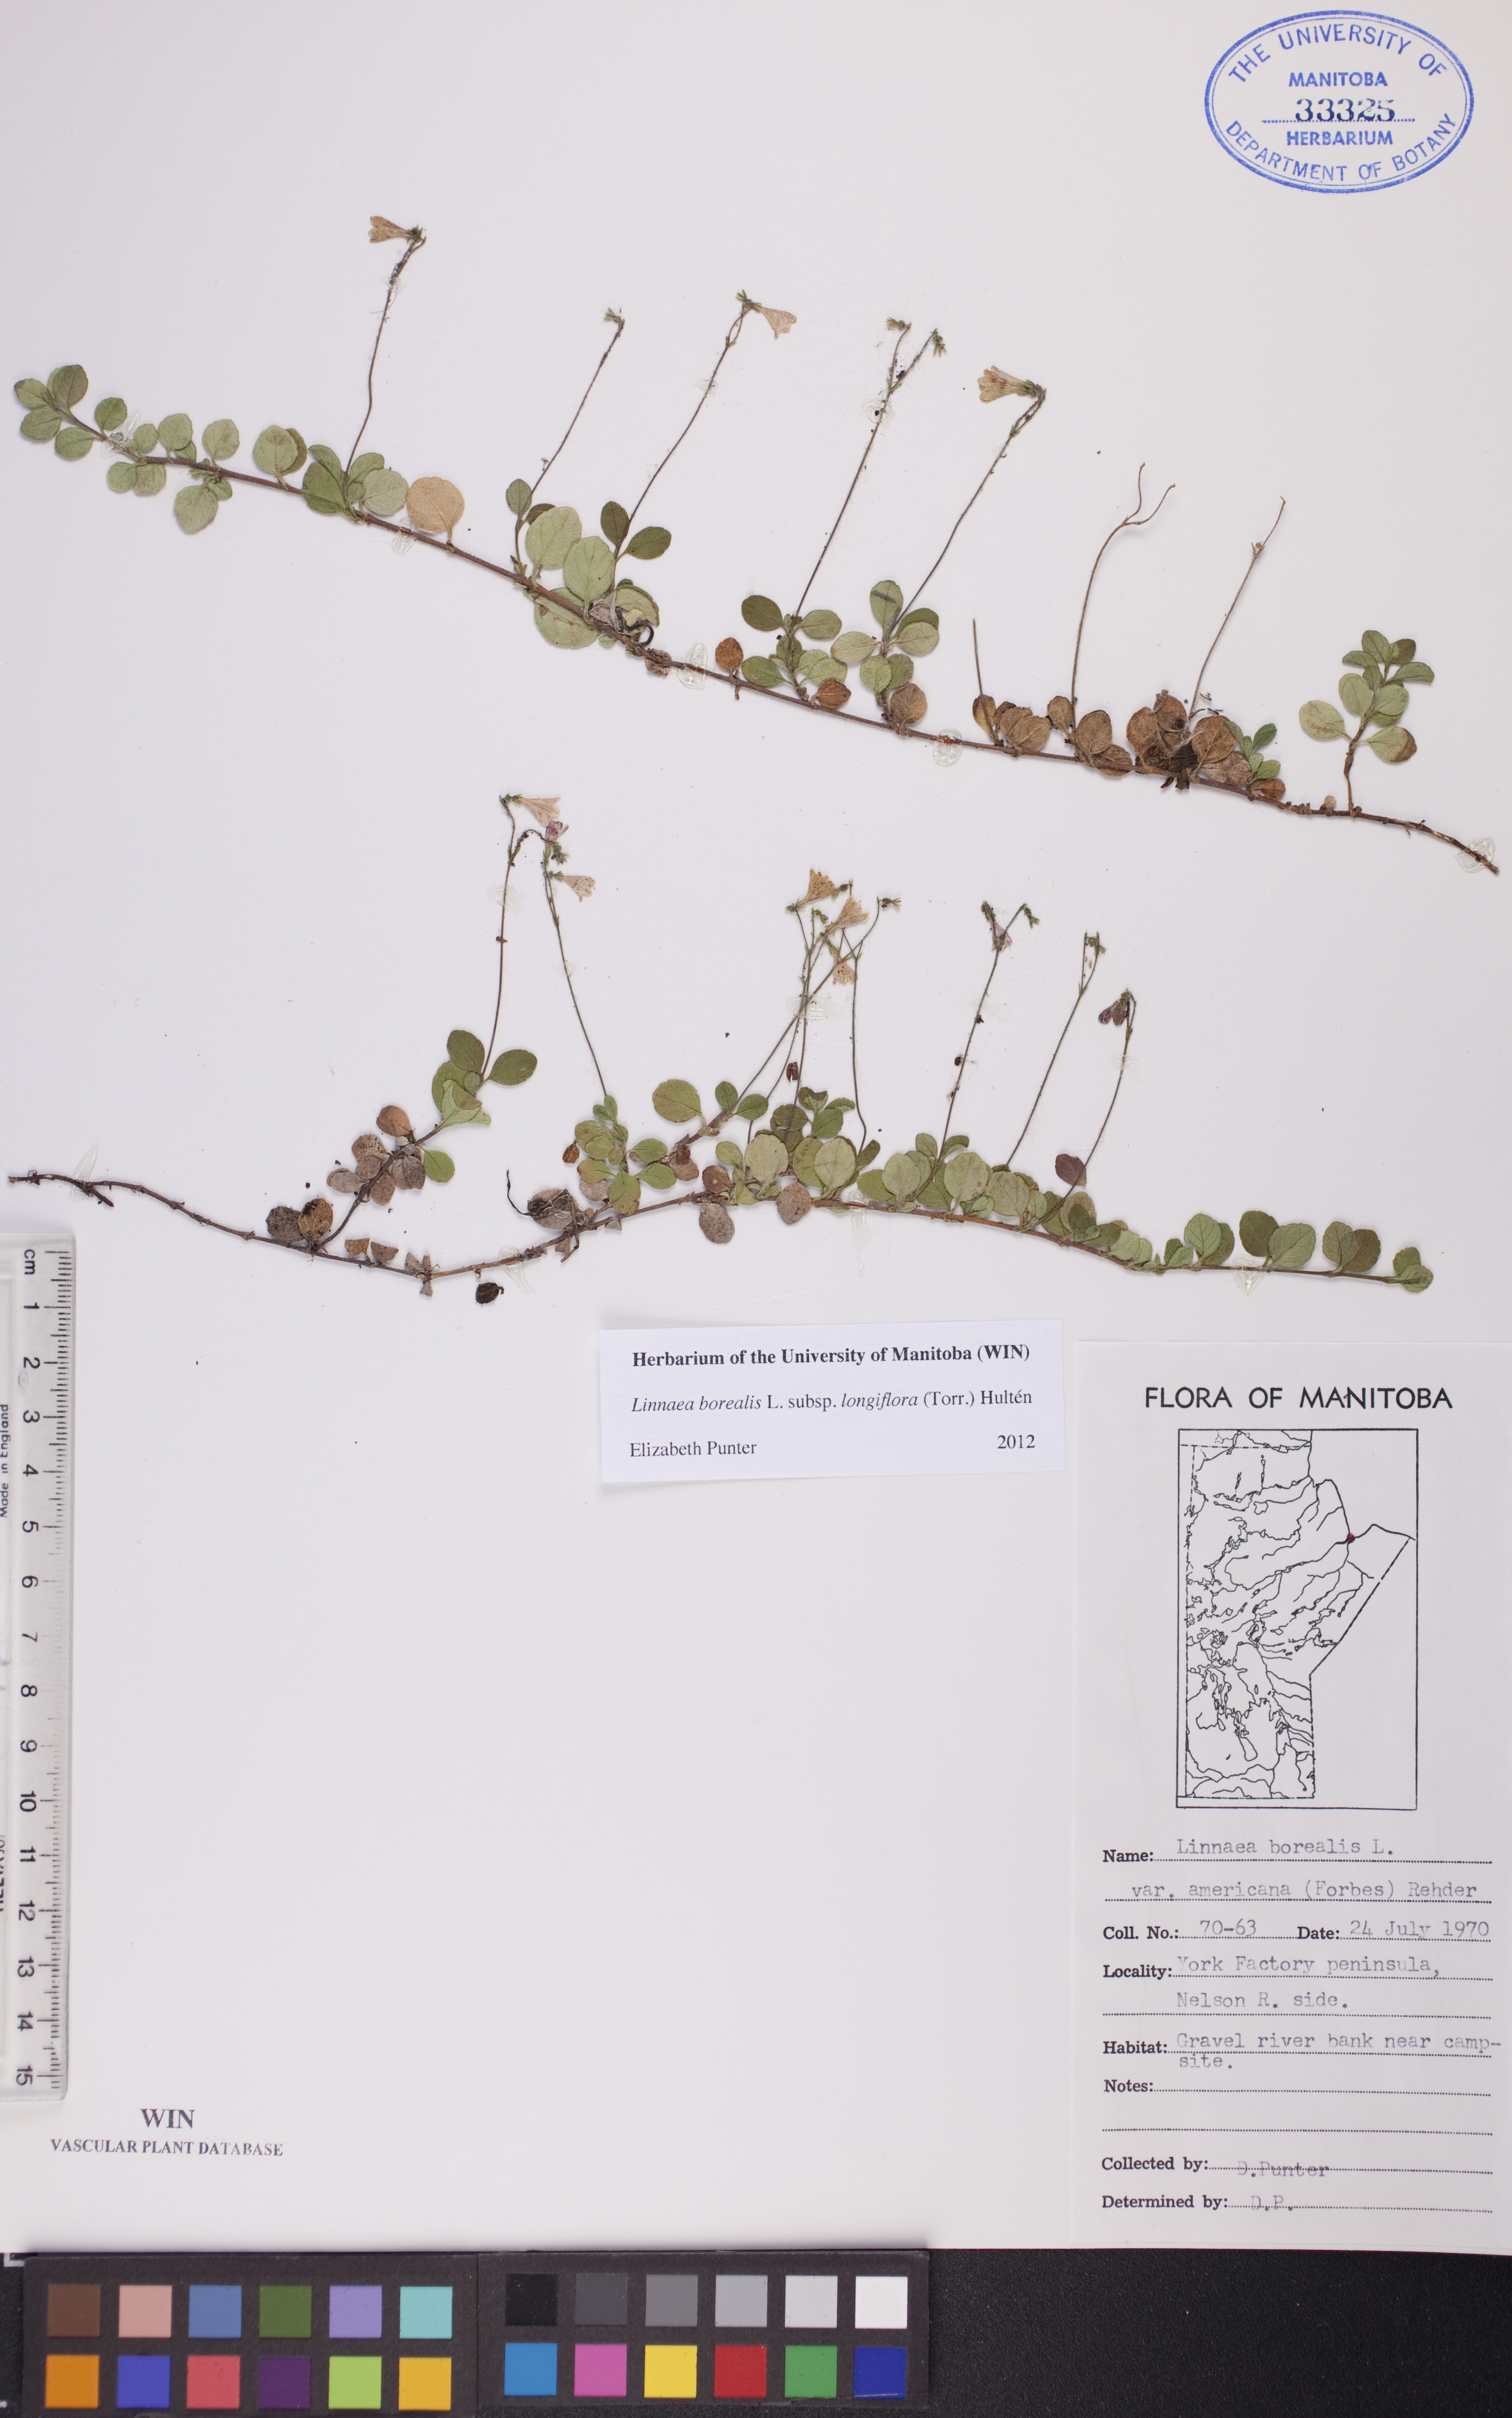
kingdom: Plantae
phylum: Tracheophyta
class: Magnoliopsida
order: Dipsacales
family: Caprifoliaceae
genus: Linnaea
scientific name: Linnaea borealis
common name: Twinflower
